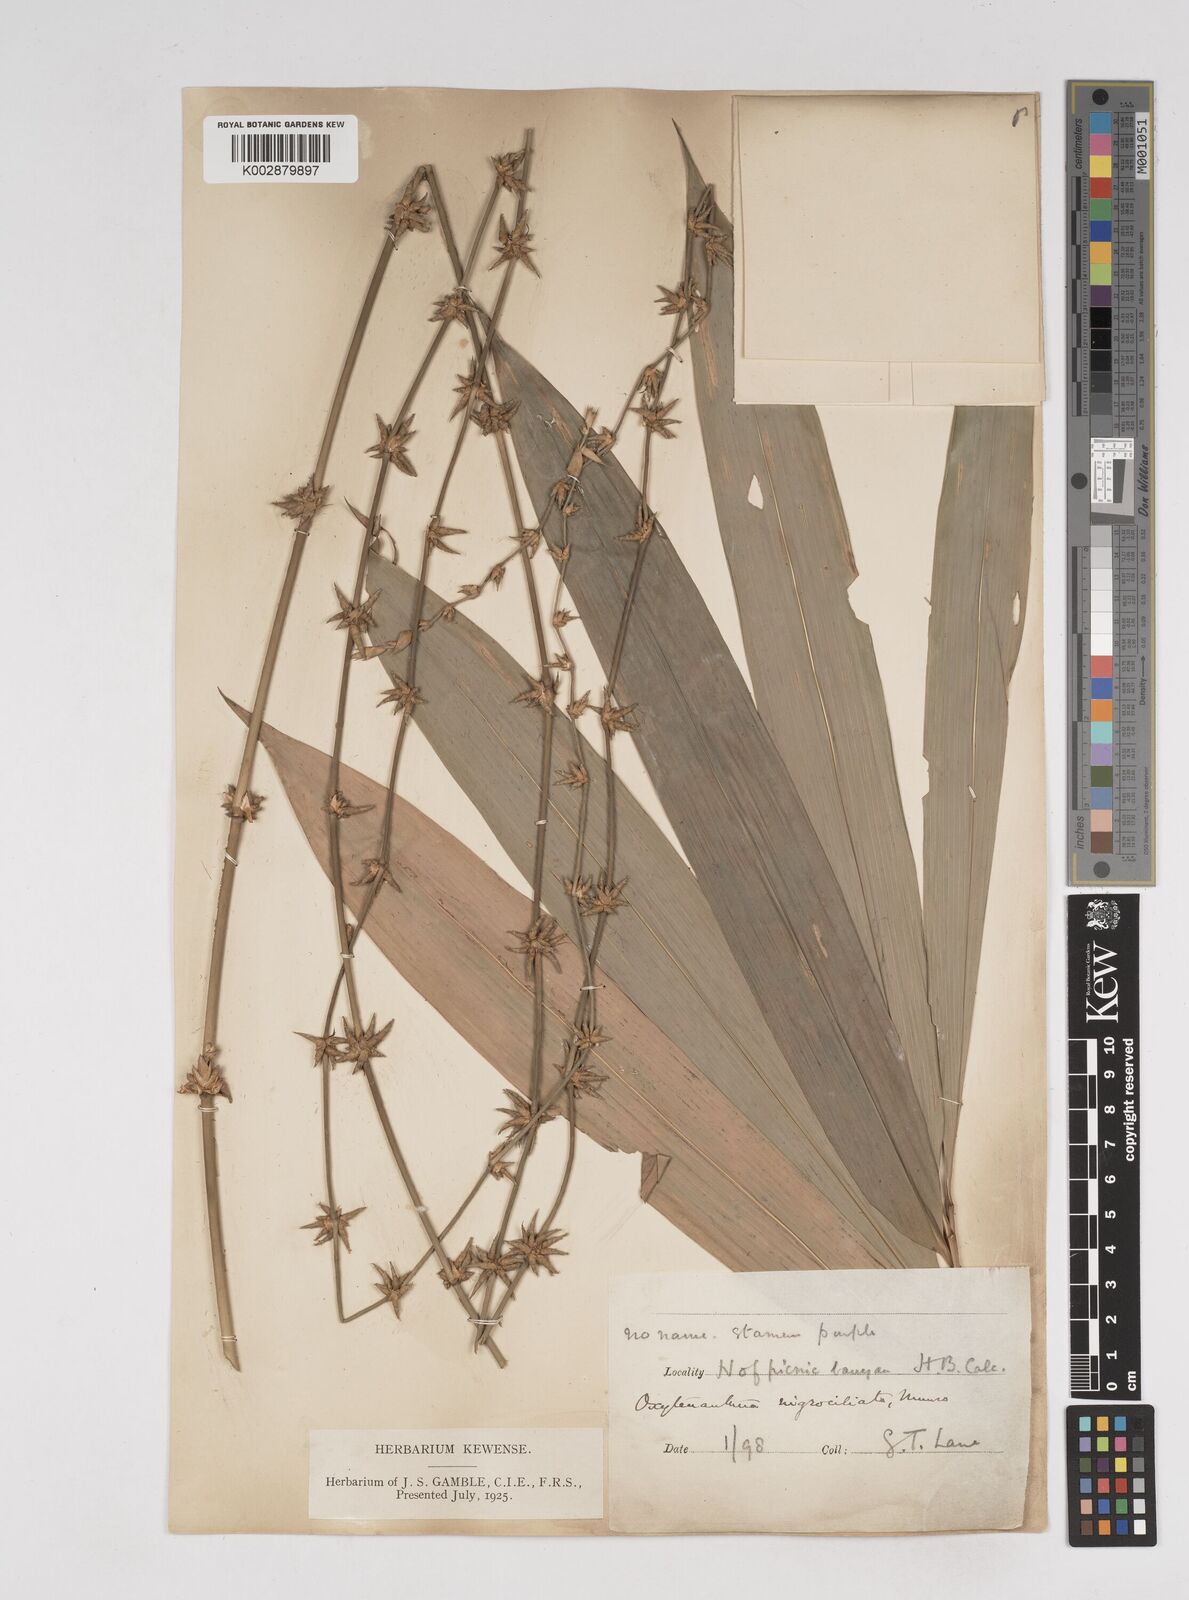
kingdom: Plantae
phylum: Tracheophyta
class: Liliopsida
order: Poales
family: Poaceae
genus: Gigantochloa
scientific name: Gigantochloa nigrociliata
